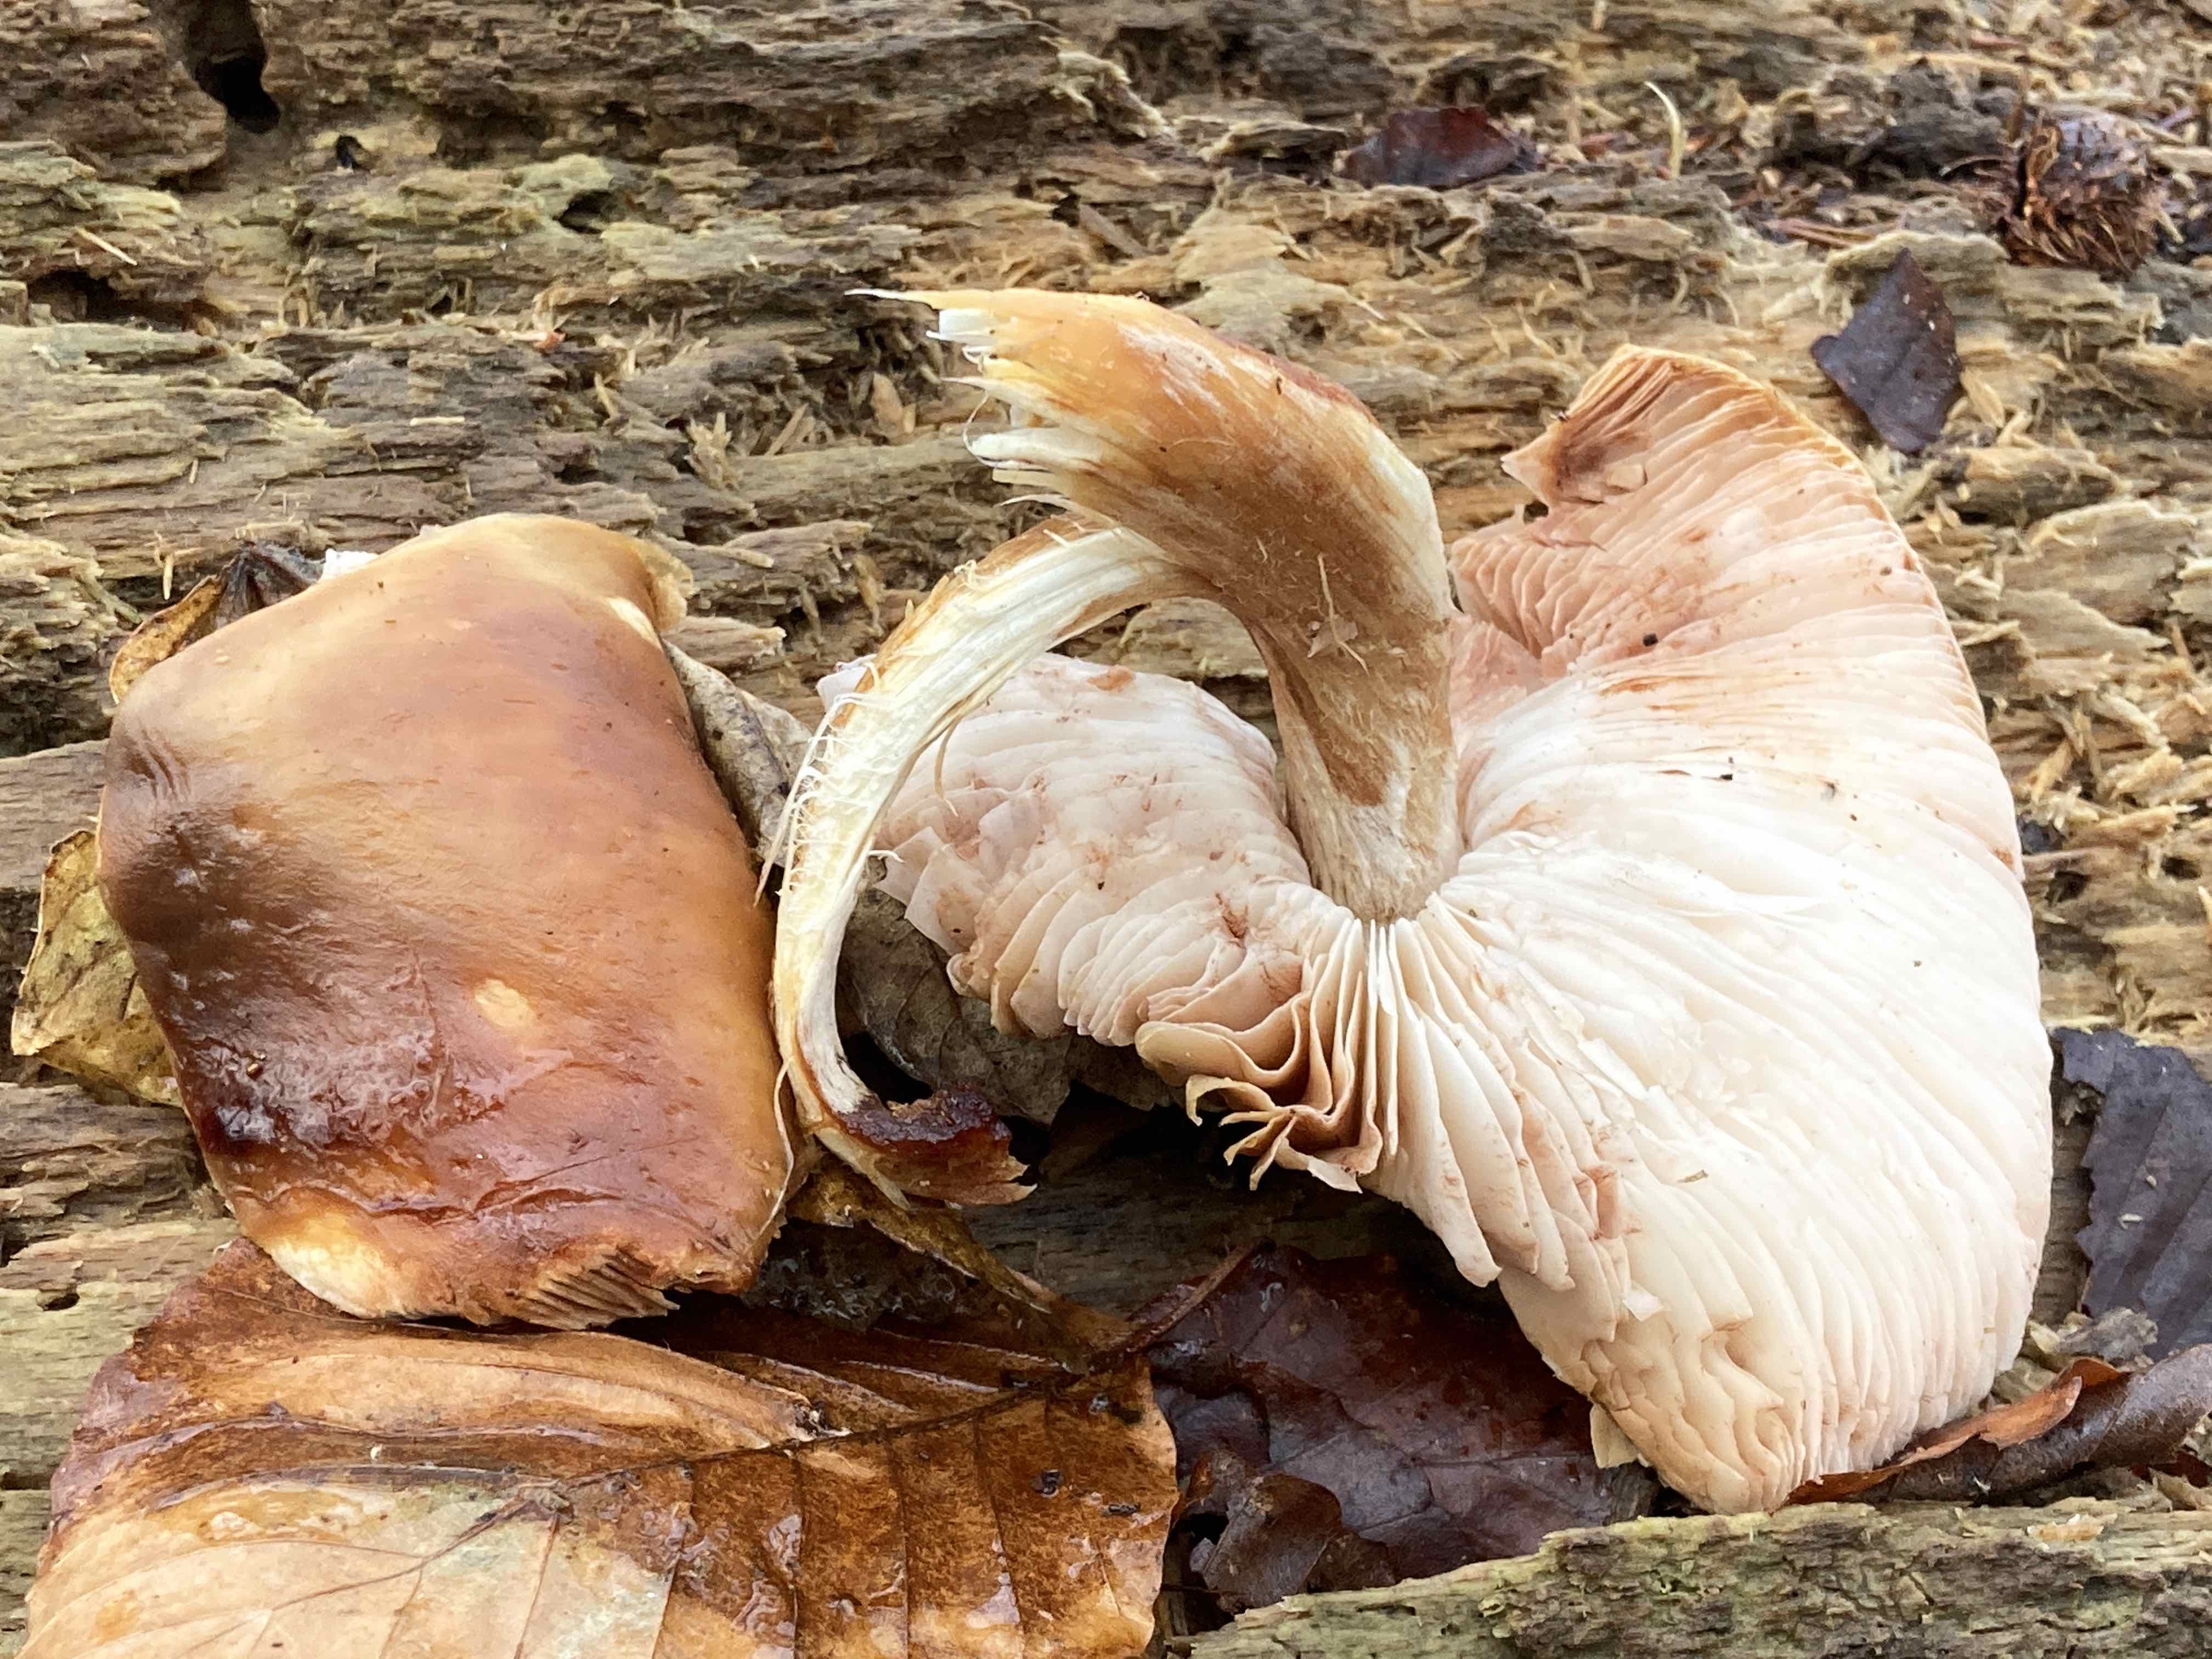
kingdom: Fungi
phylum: Basidiomycota
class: Agaricomycetes
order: Agaricales
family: Pluteaceae
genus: Pluteus
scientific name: Pluteus cervinus
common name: sodfarvet skærmhat
